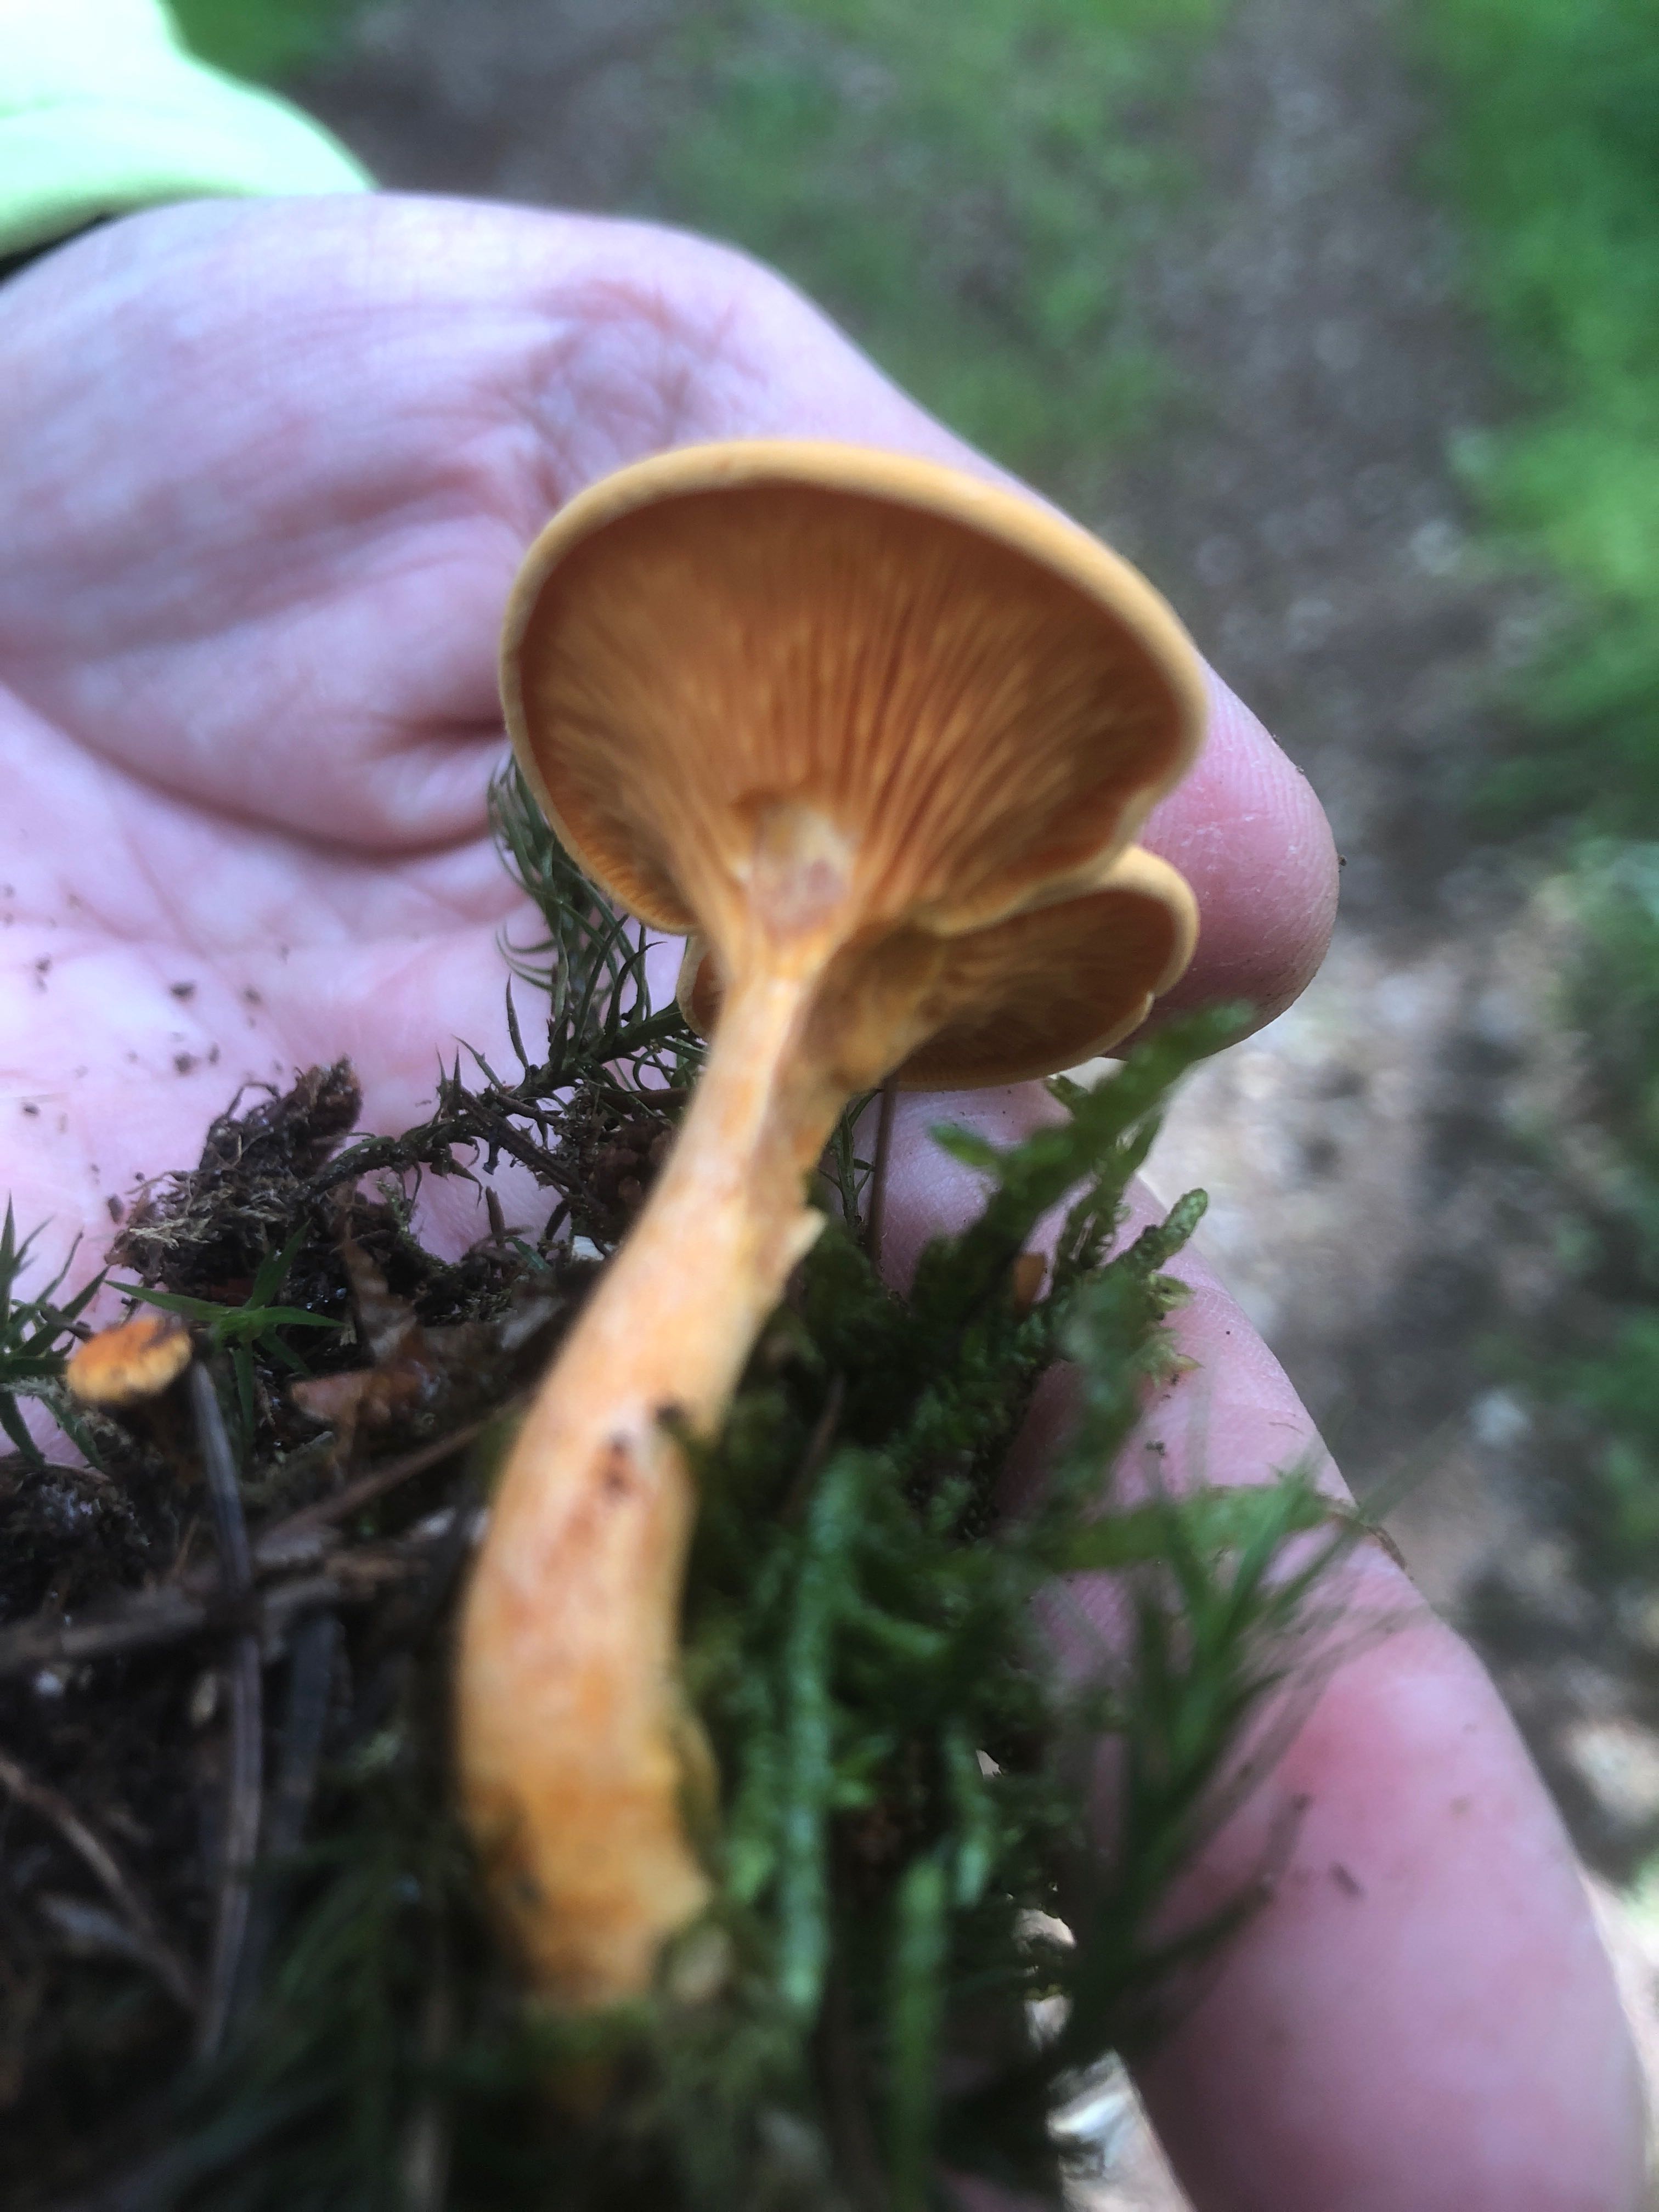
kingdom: Fungi
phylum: Basidiomycota
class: Agaricomycetes
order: Boletales
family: Hygrophoropsidaceae
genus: Hygrophoropsis
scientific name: Hygrophoropsis aurantiaca
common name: almindelig orangekantarel
